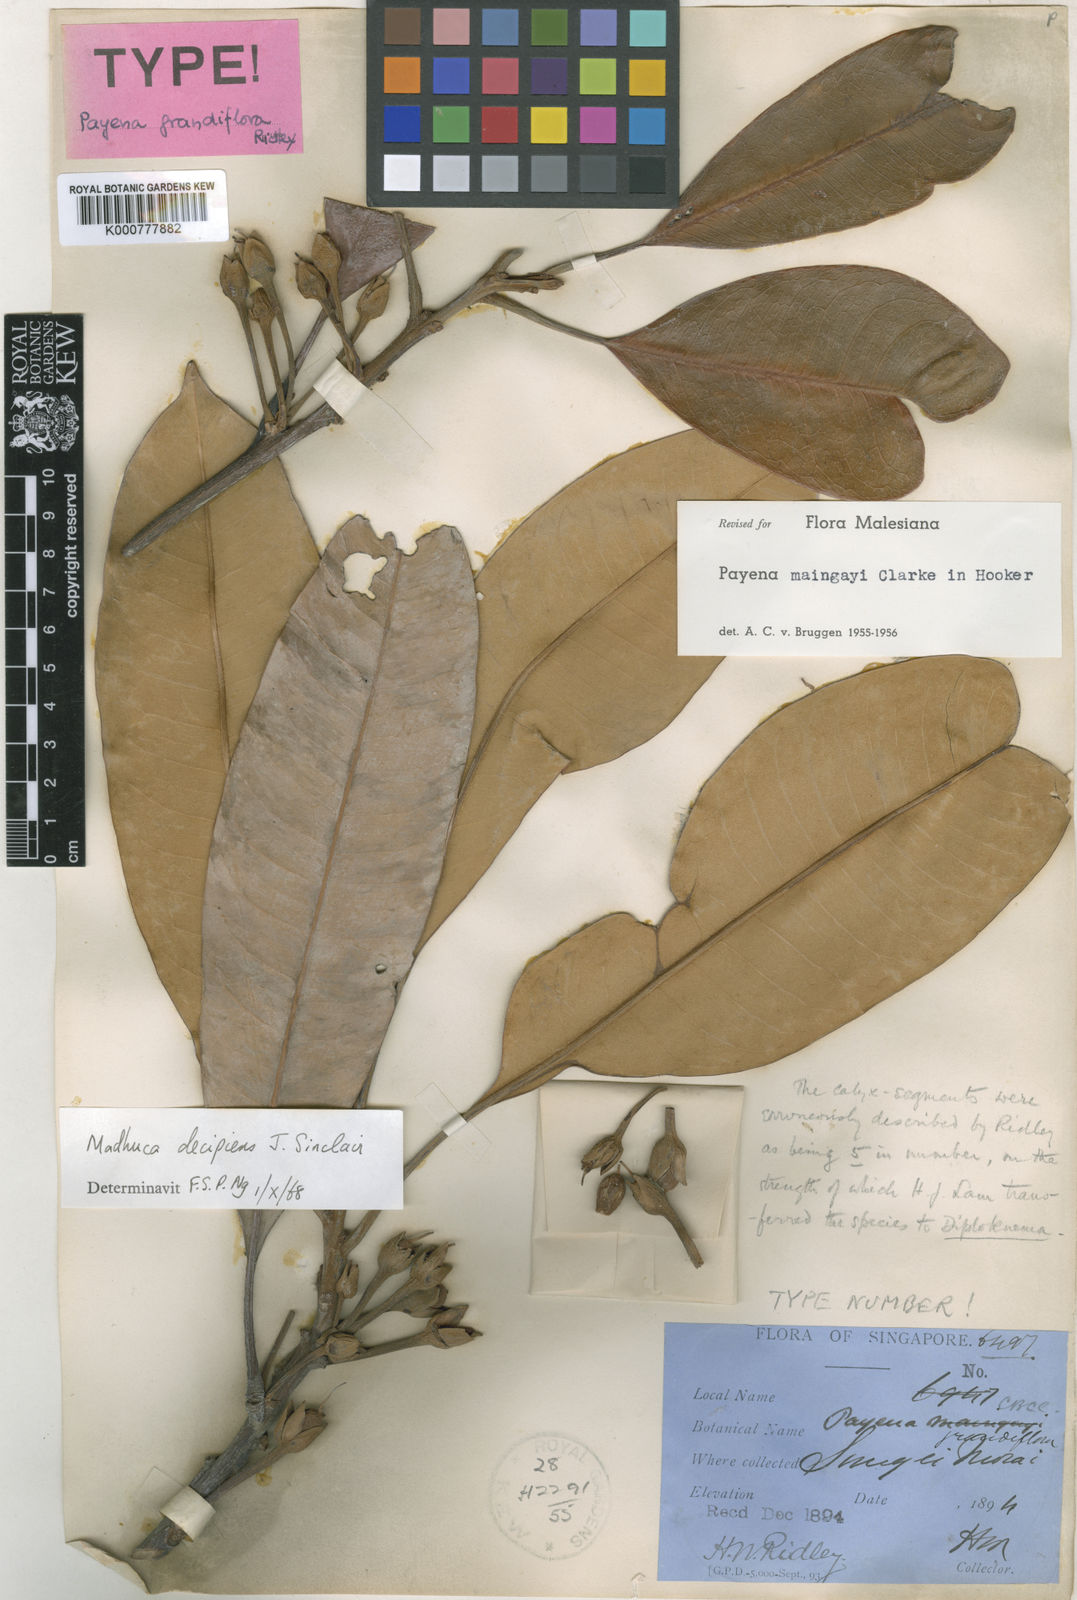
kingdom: Plantae
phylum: Tracheophyta
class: Magnoliopsida
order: Ericales
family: Sapotaceae
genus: Madhuca
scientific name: Madhuca decipiens
